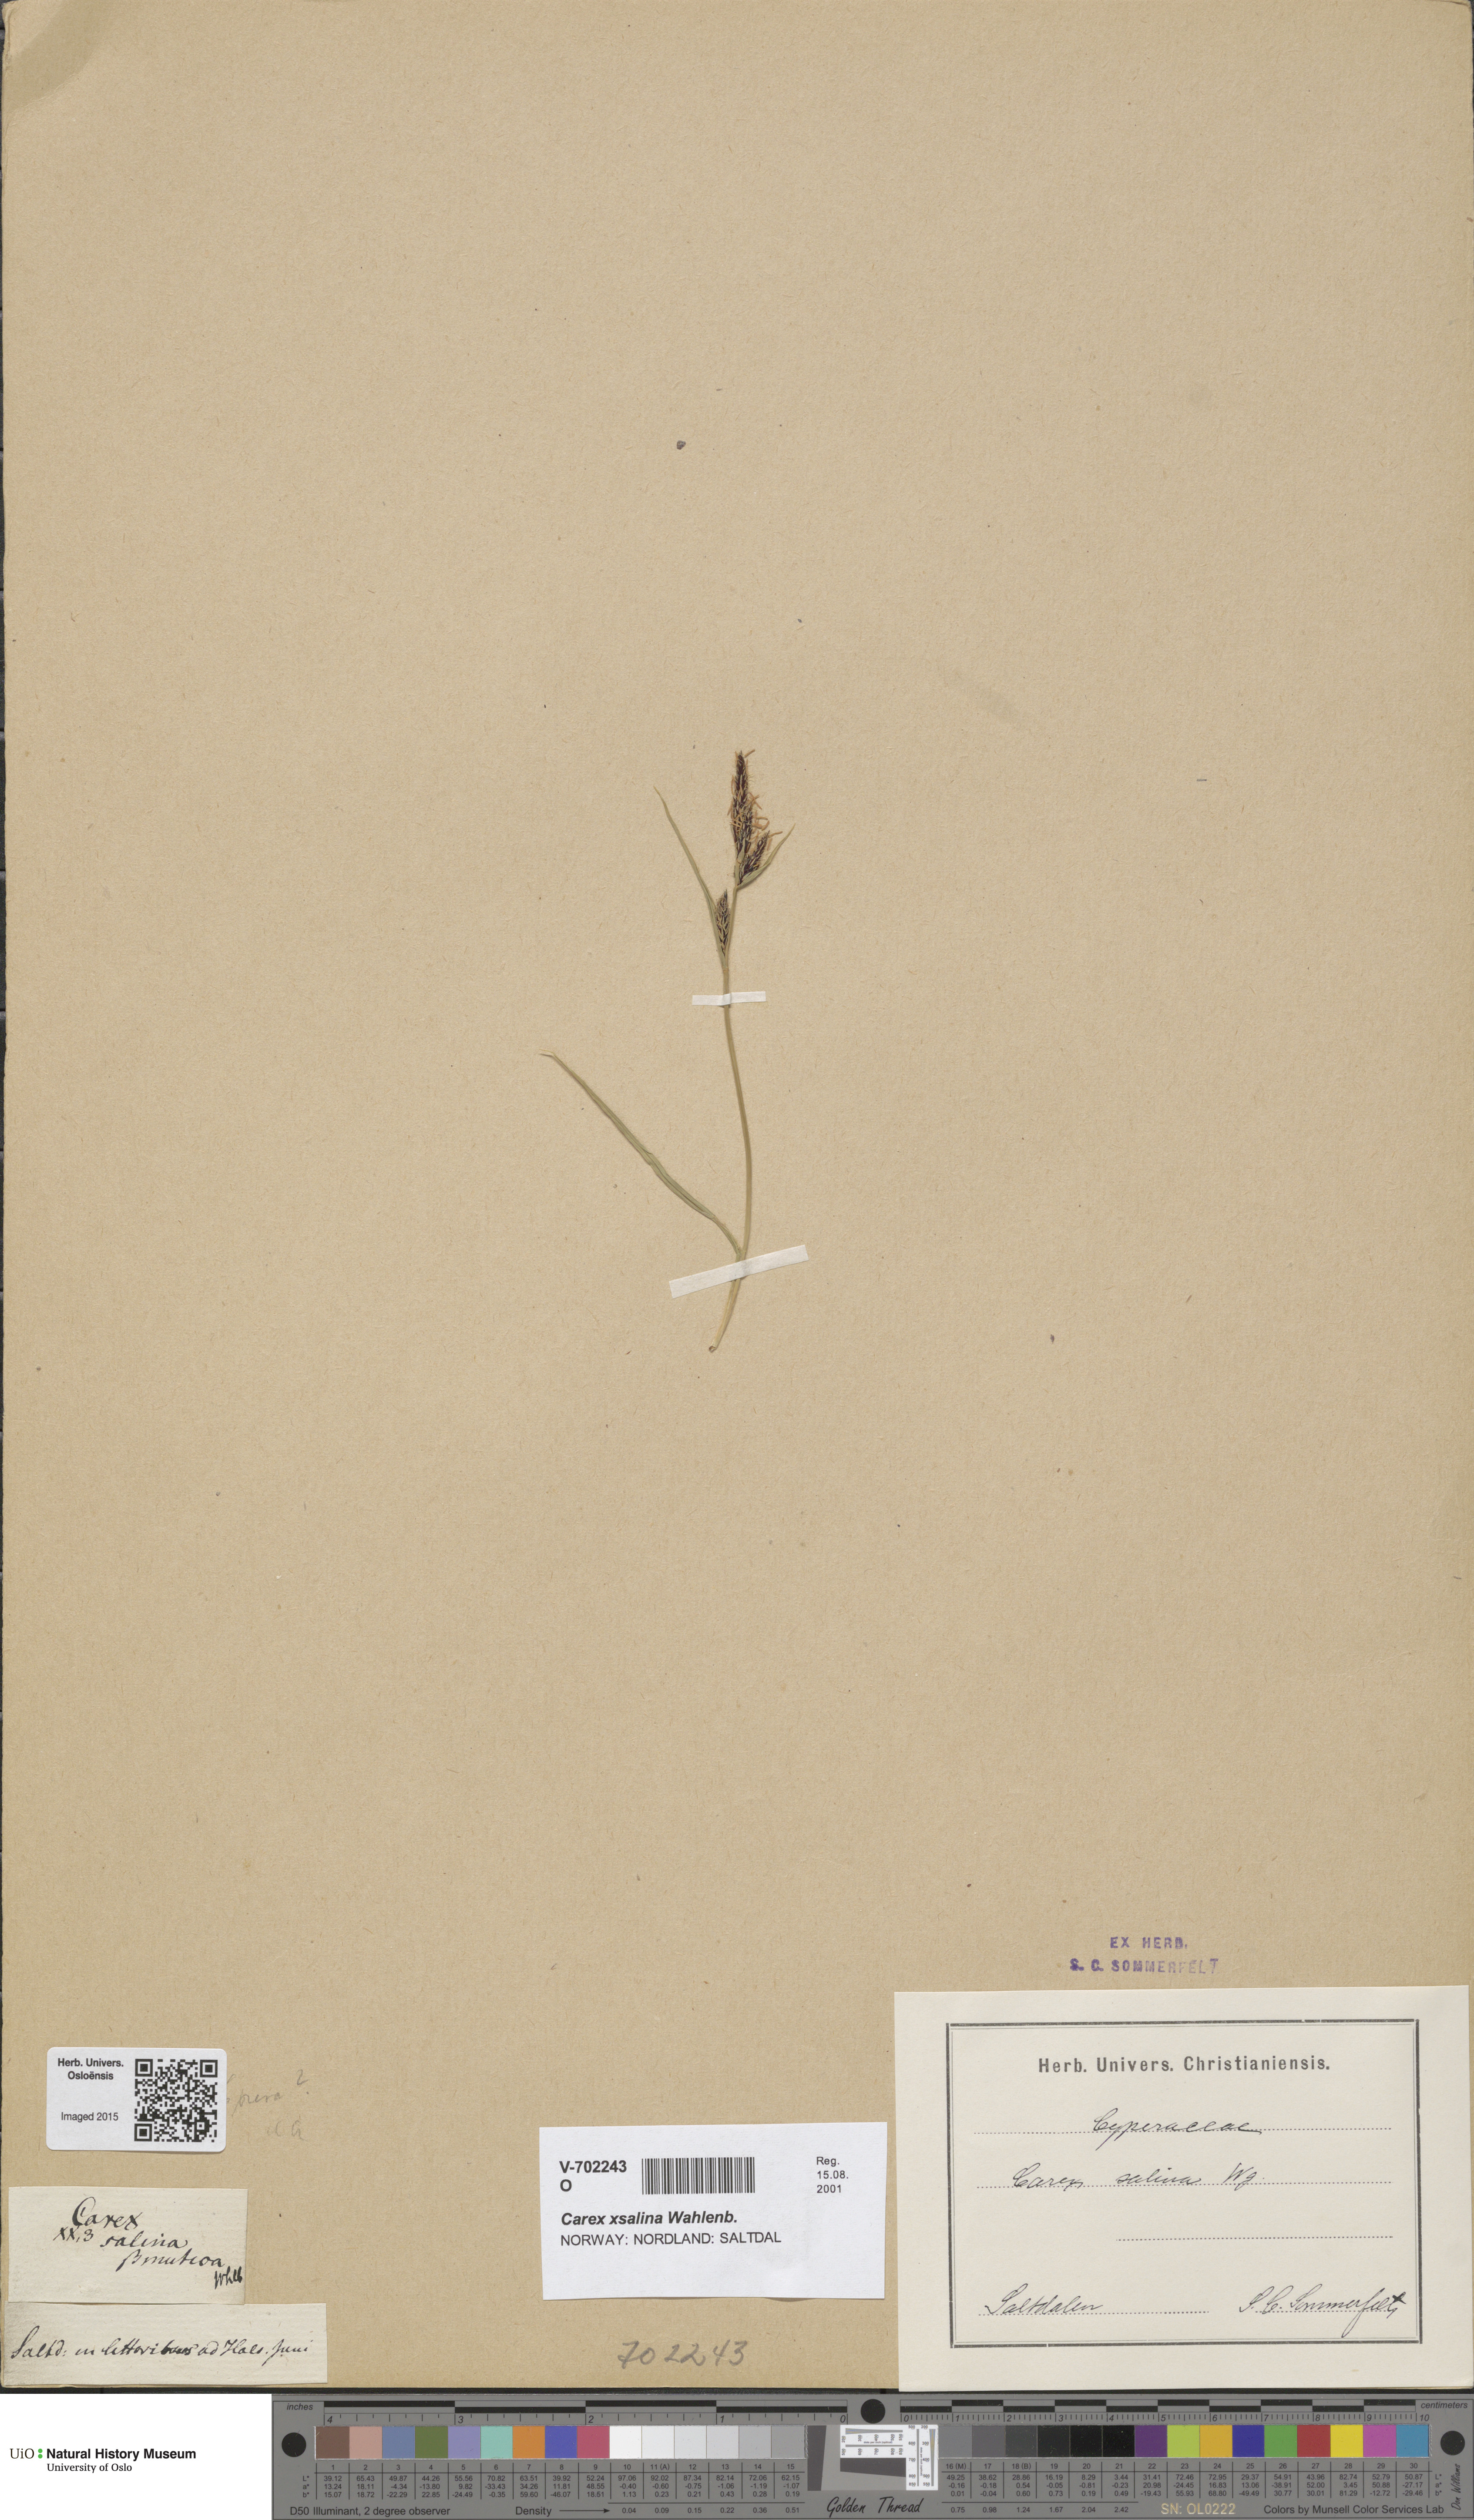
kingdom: Plantae
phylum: Tracheophyta
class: Liliopsida
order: Poales
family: Cyperaceae
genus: Carex
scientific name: Carex salina
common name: Saltmarsh sedge
